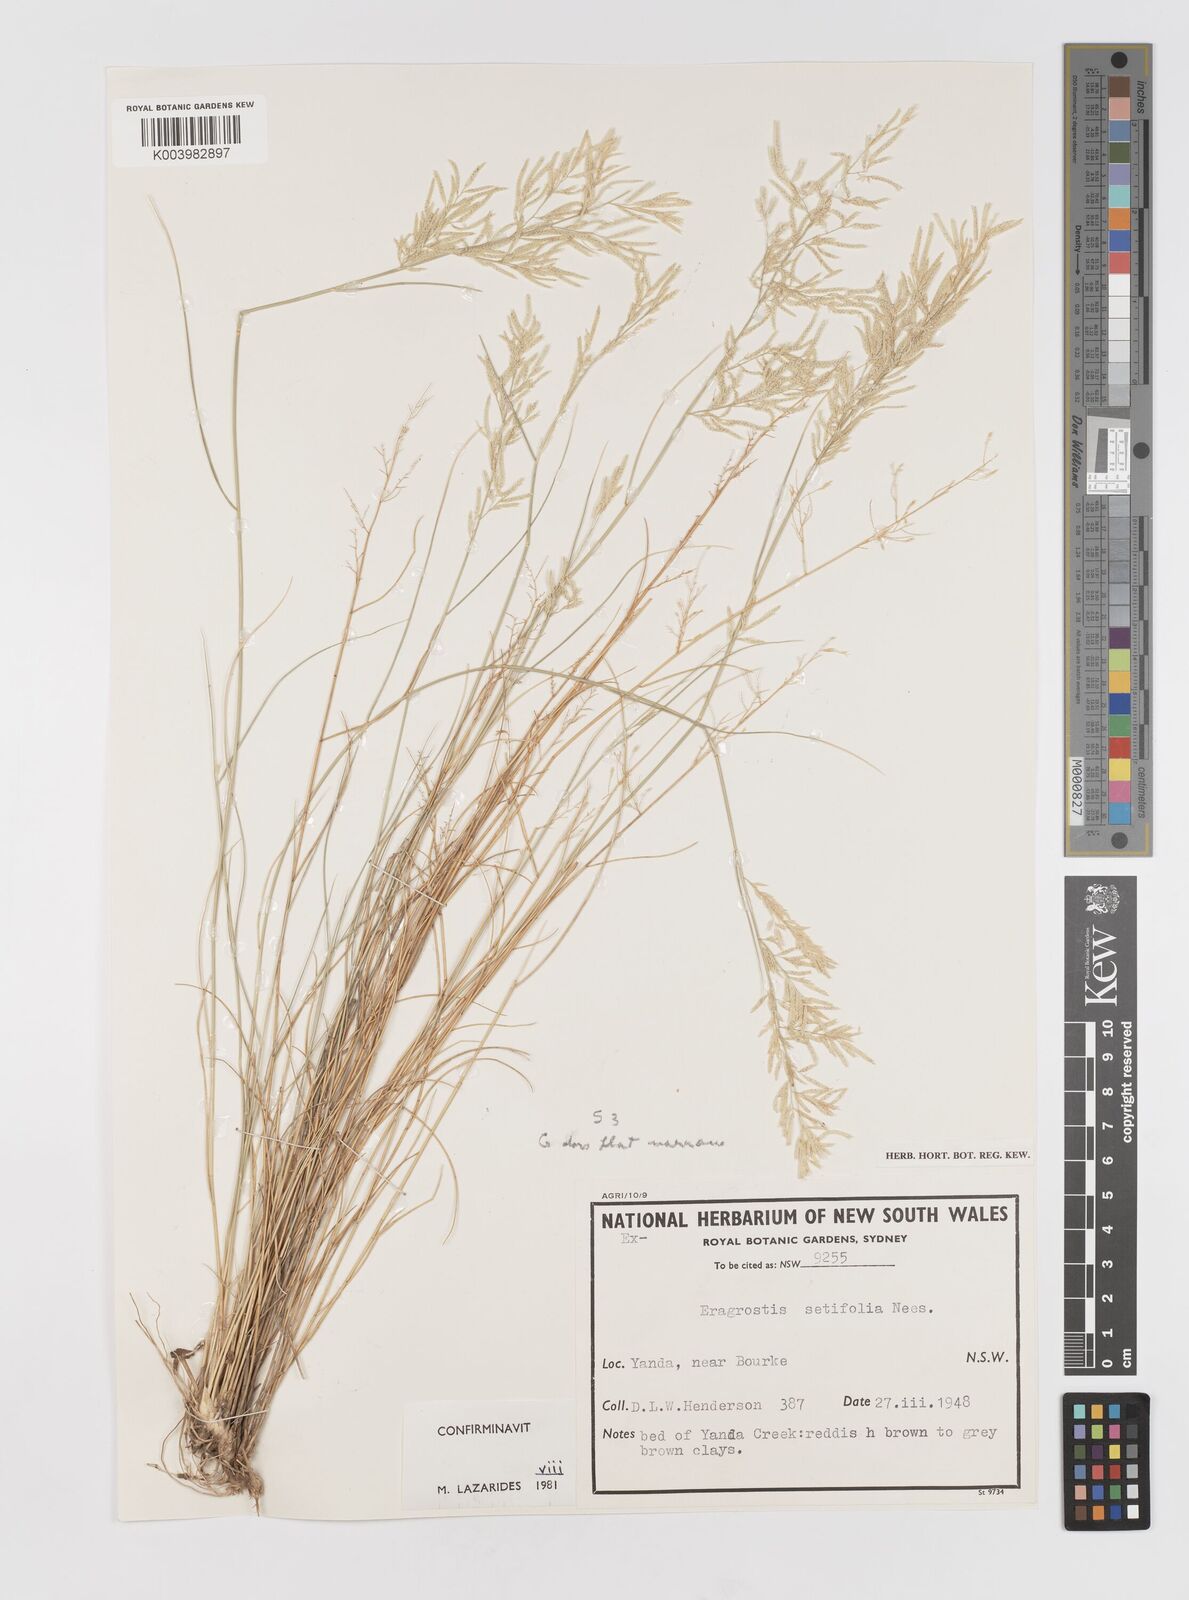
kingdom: Plantae
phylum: Tracheophyta
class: Liliopsida
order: Poales
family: Poaceae
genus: Eragrostis
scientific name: Eragrostis setifolia
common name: Bristleleaf lovegrass
